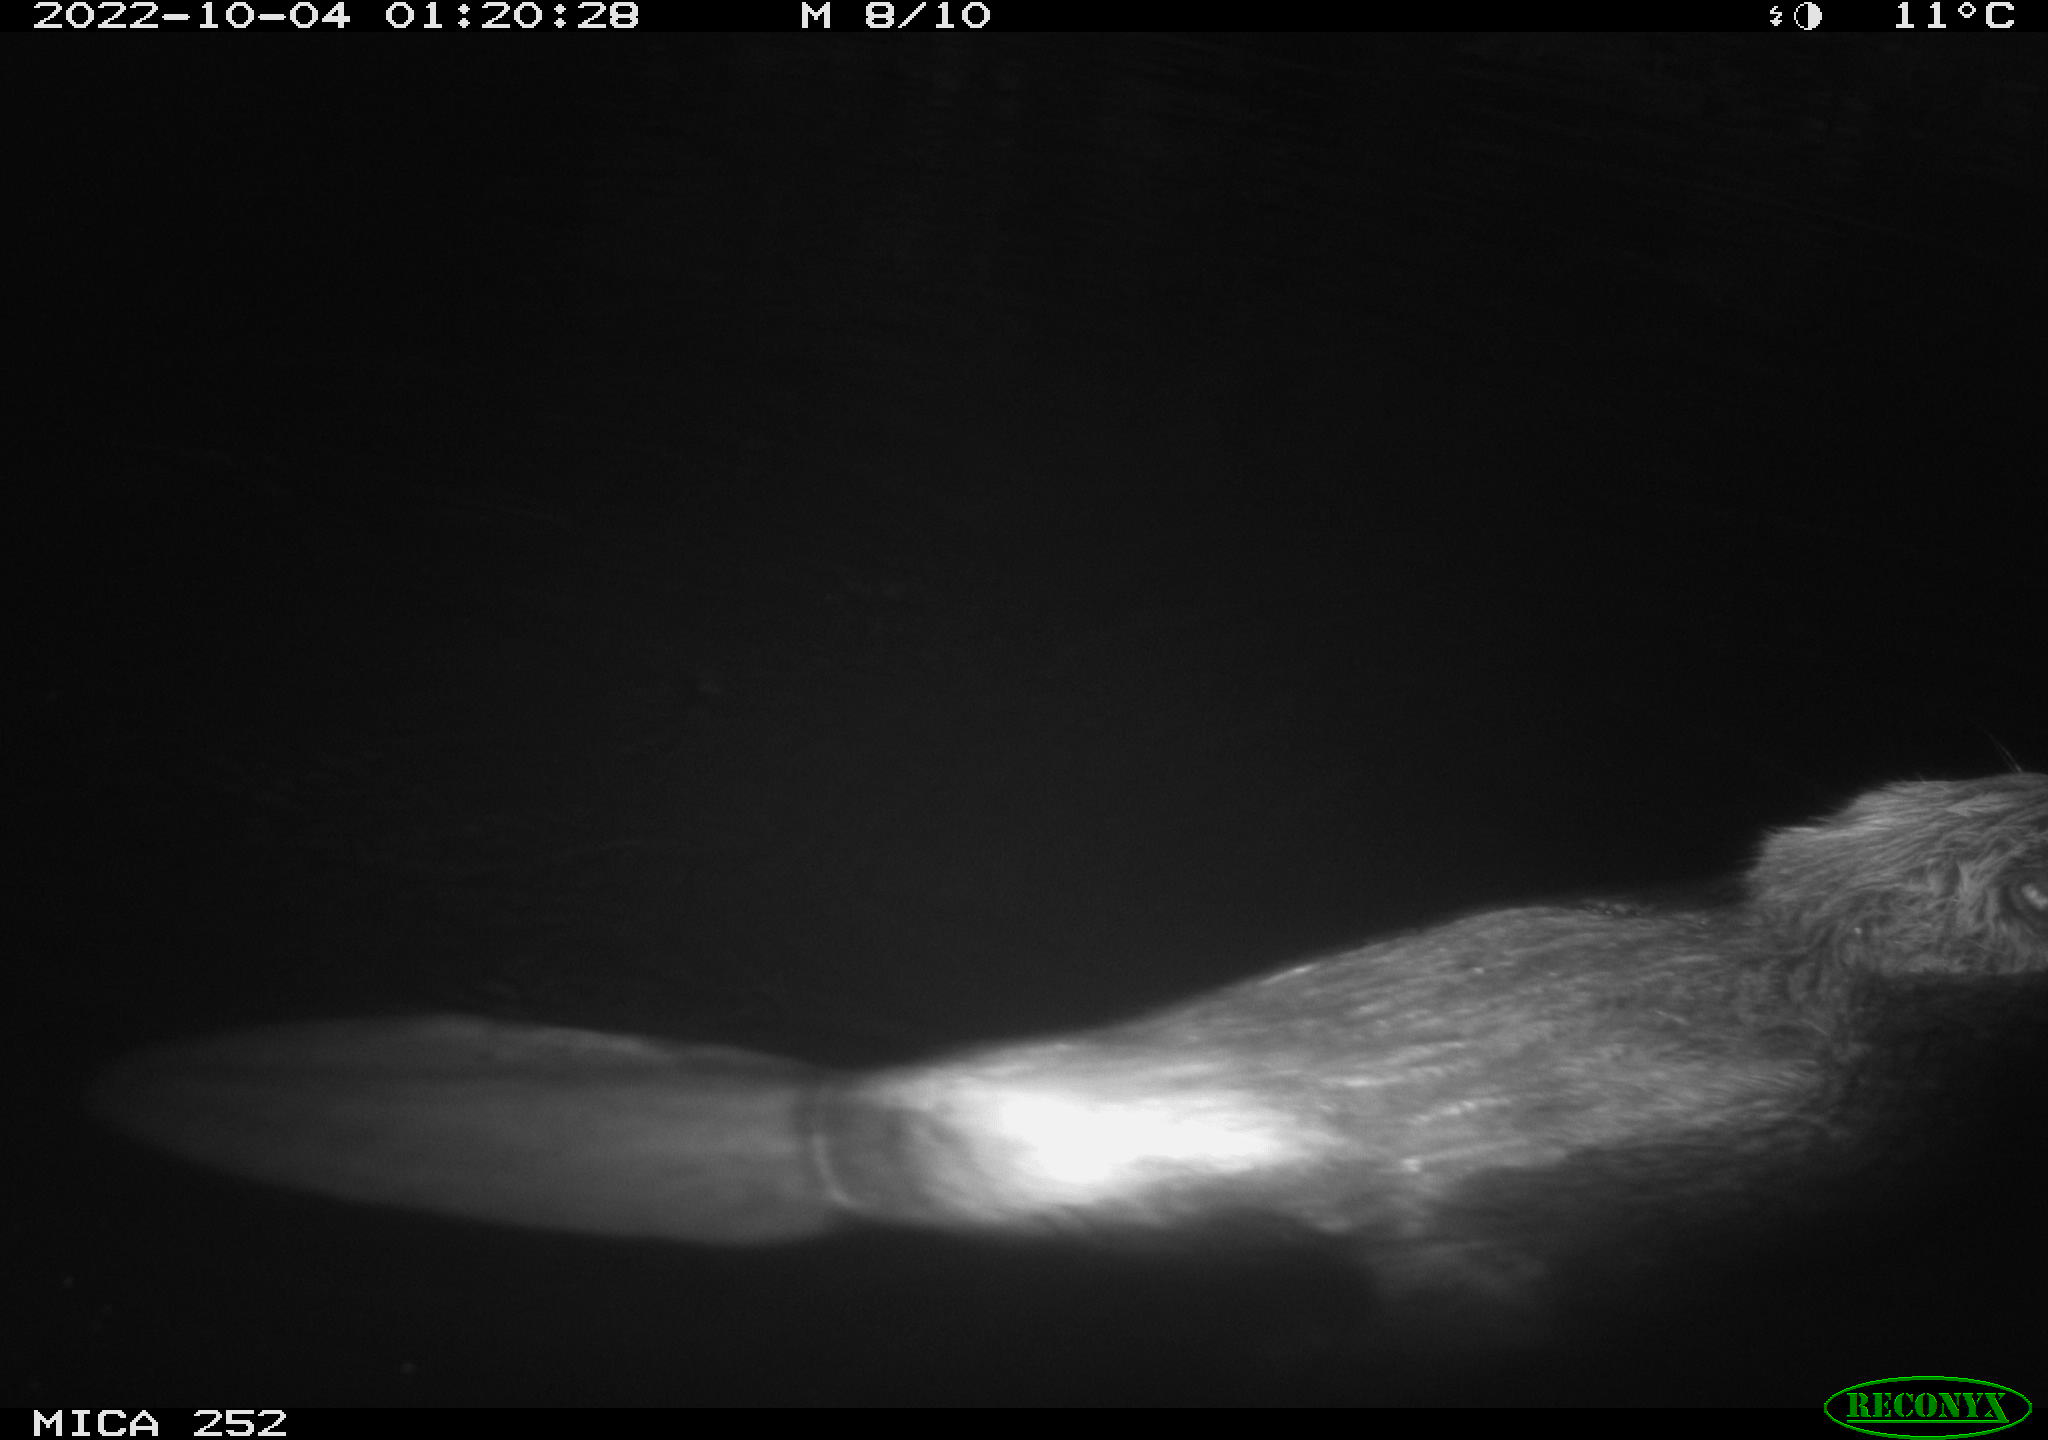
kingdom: Animalia
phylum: Chordata
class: Mammalia
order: Rodentia
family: Castoridae
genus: Castor
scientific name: Castor fiber
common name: Eurasian beaver
